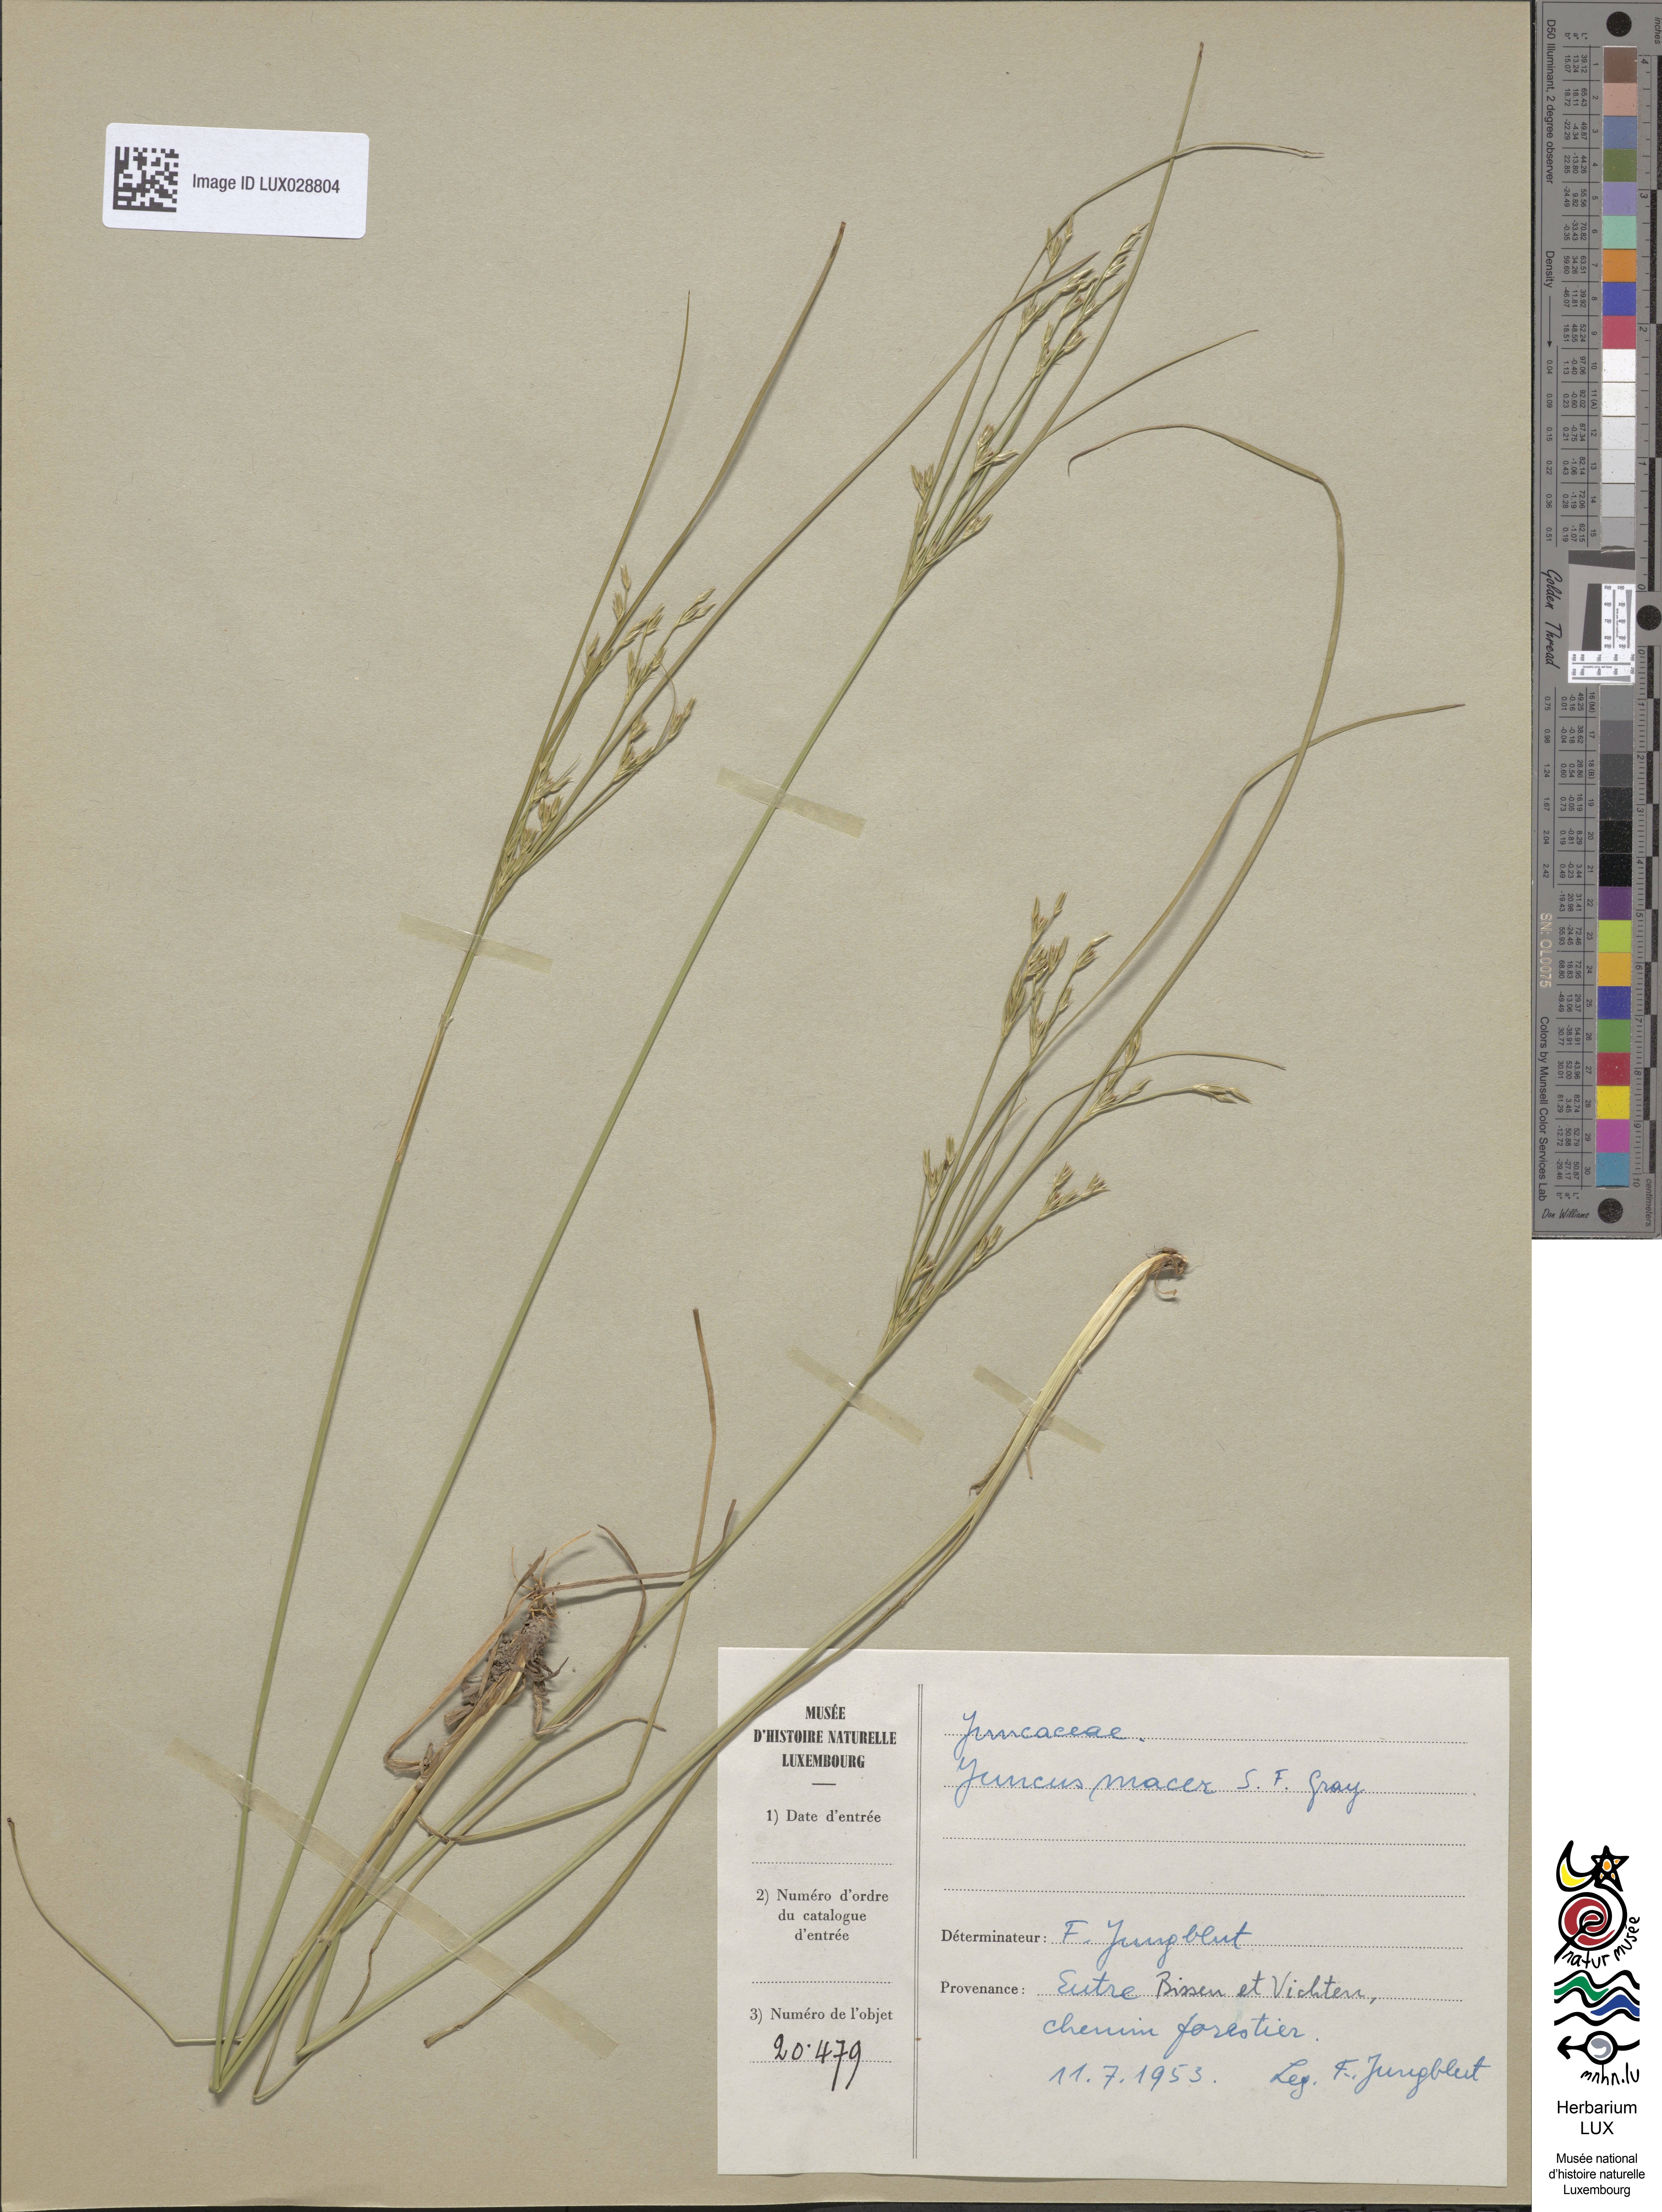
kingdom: Plantae
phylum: Tracheophyta
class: Liliopsida
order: Poales
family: Juncaceae
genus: Juncus
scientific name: Juncus tenuis
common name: Slender rush
